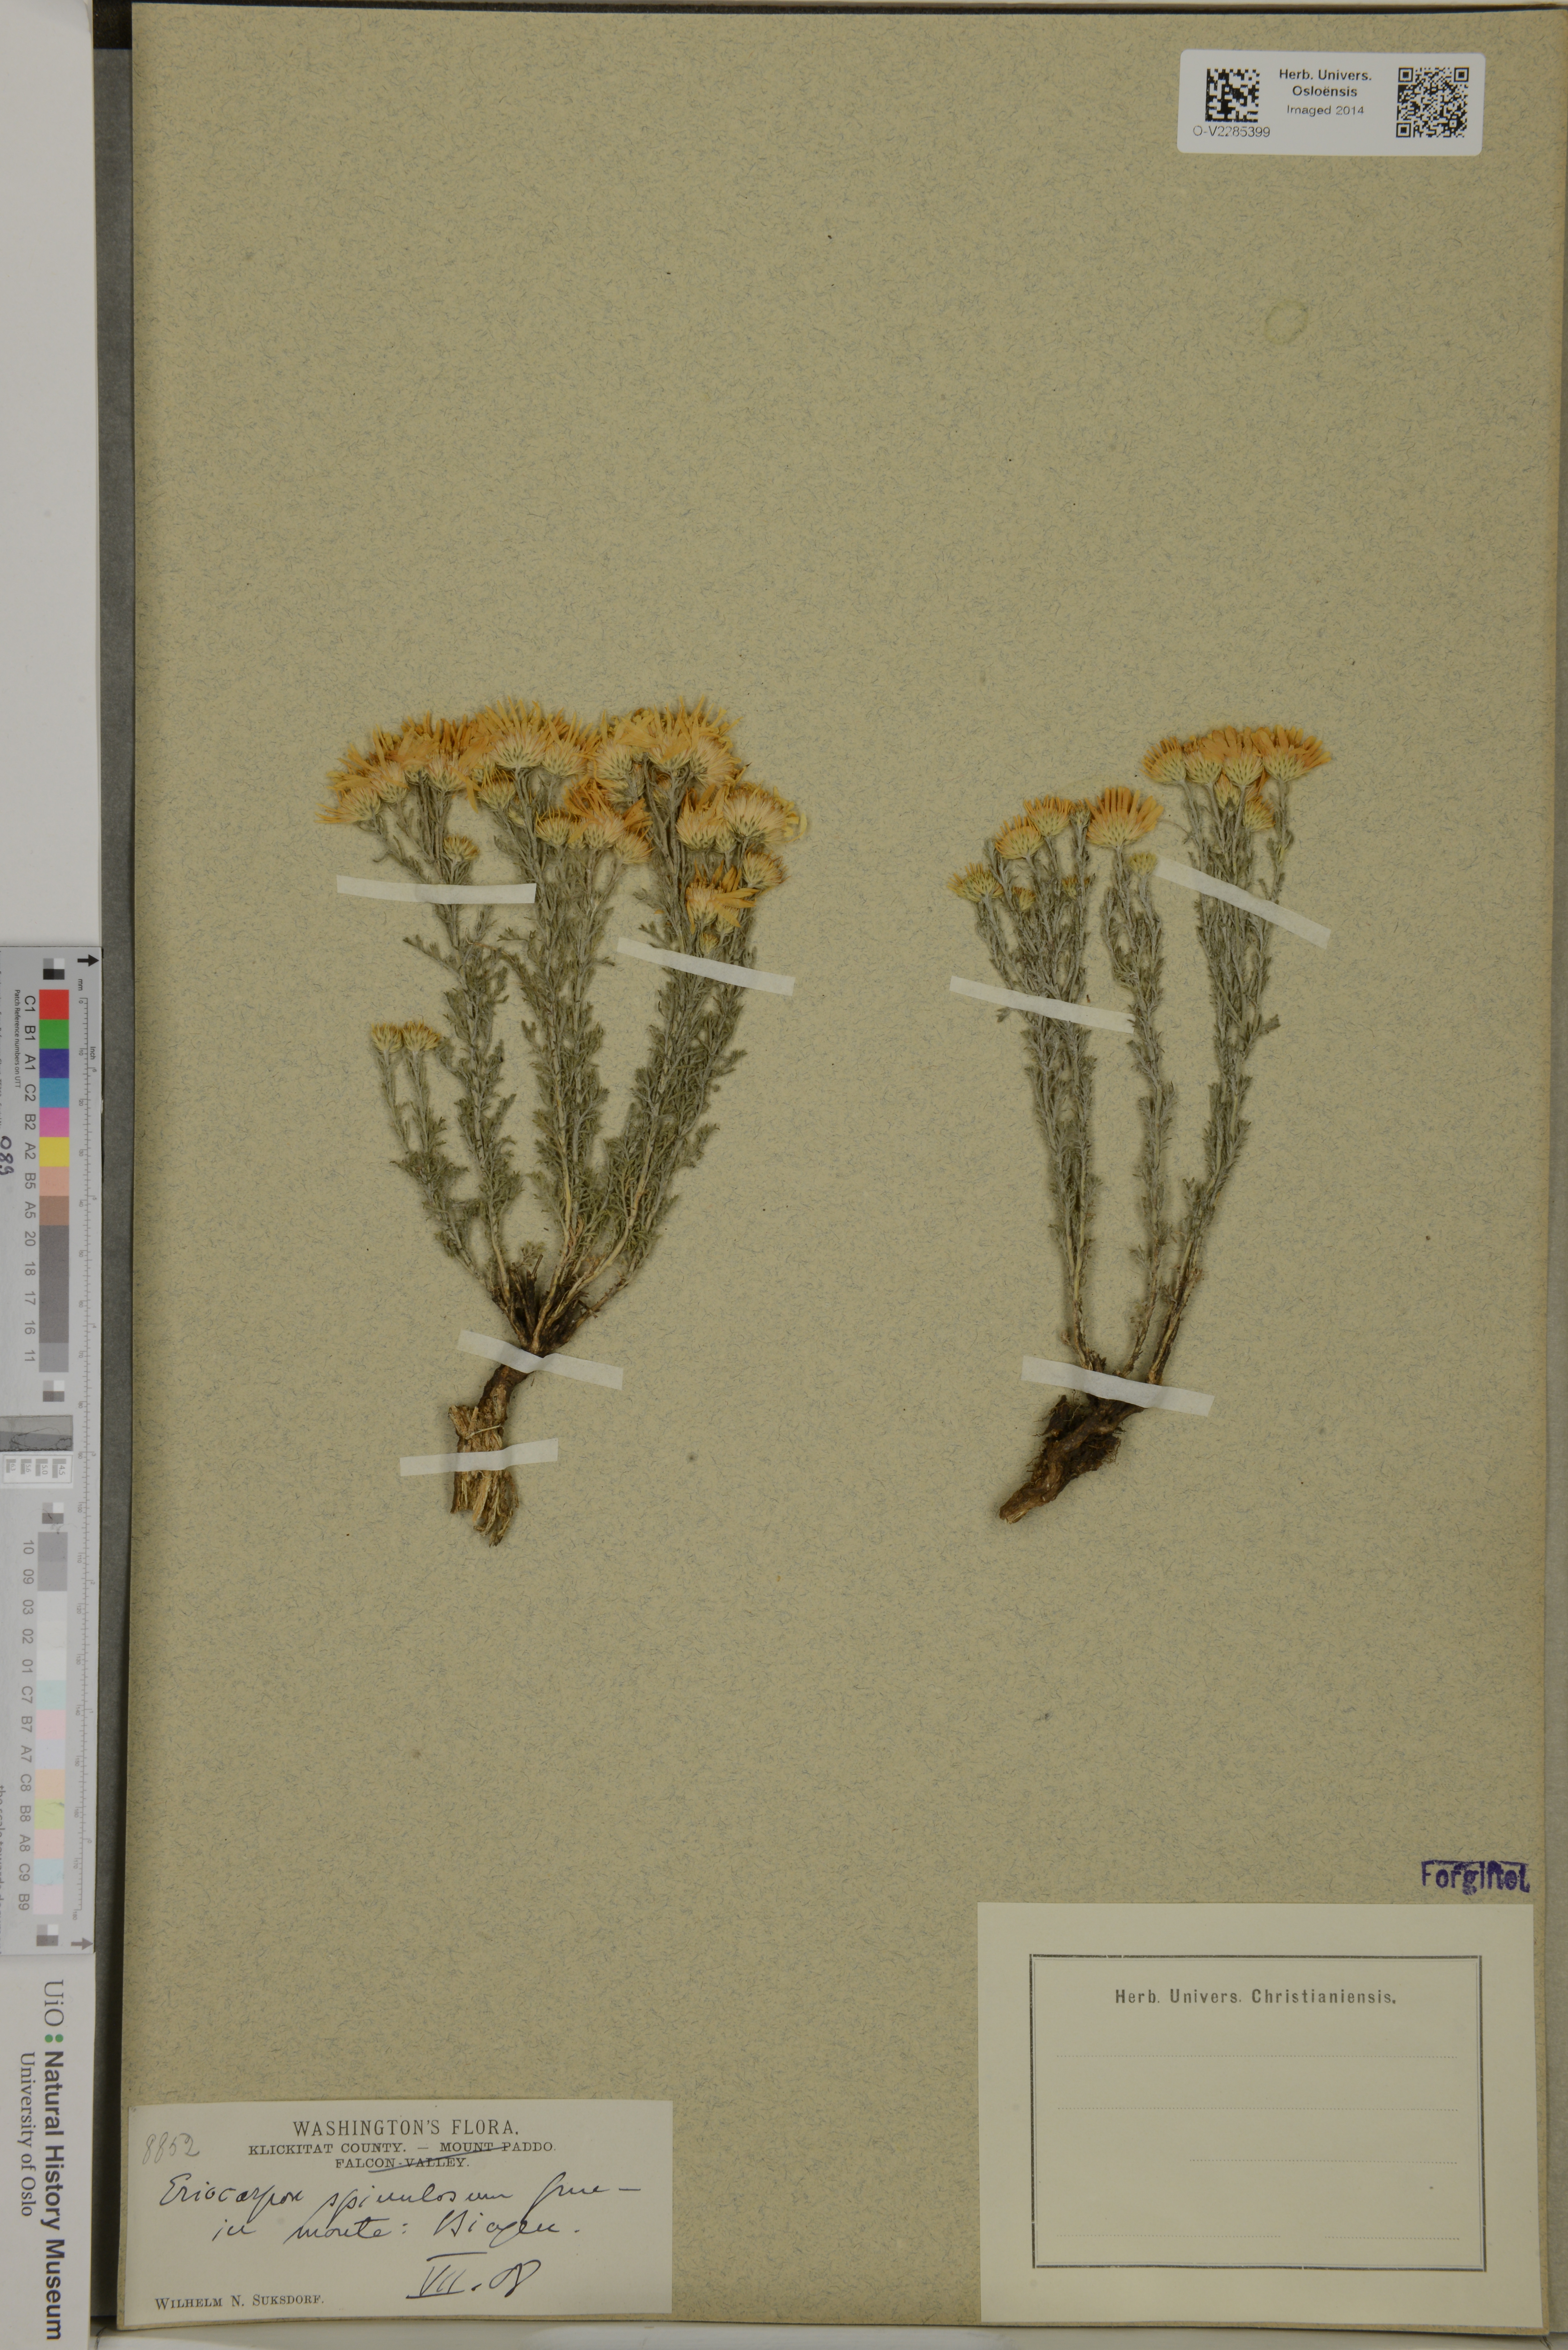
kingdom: Plantae
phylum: Tracheophyta
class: Magnoliopsida
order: Asterales
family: Asteraceae
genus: Xanthisma
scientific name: Xanthisma spinulosum
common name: Spiny goldenweed
